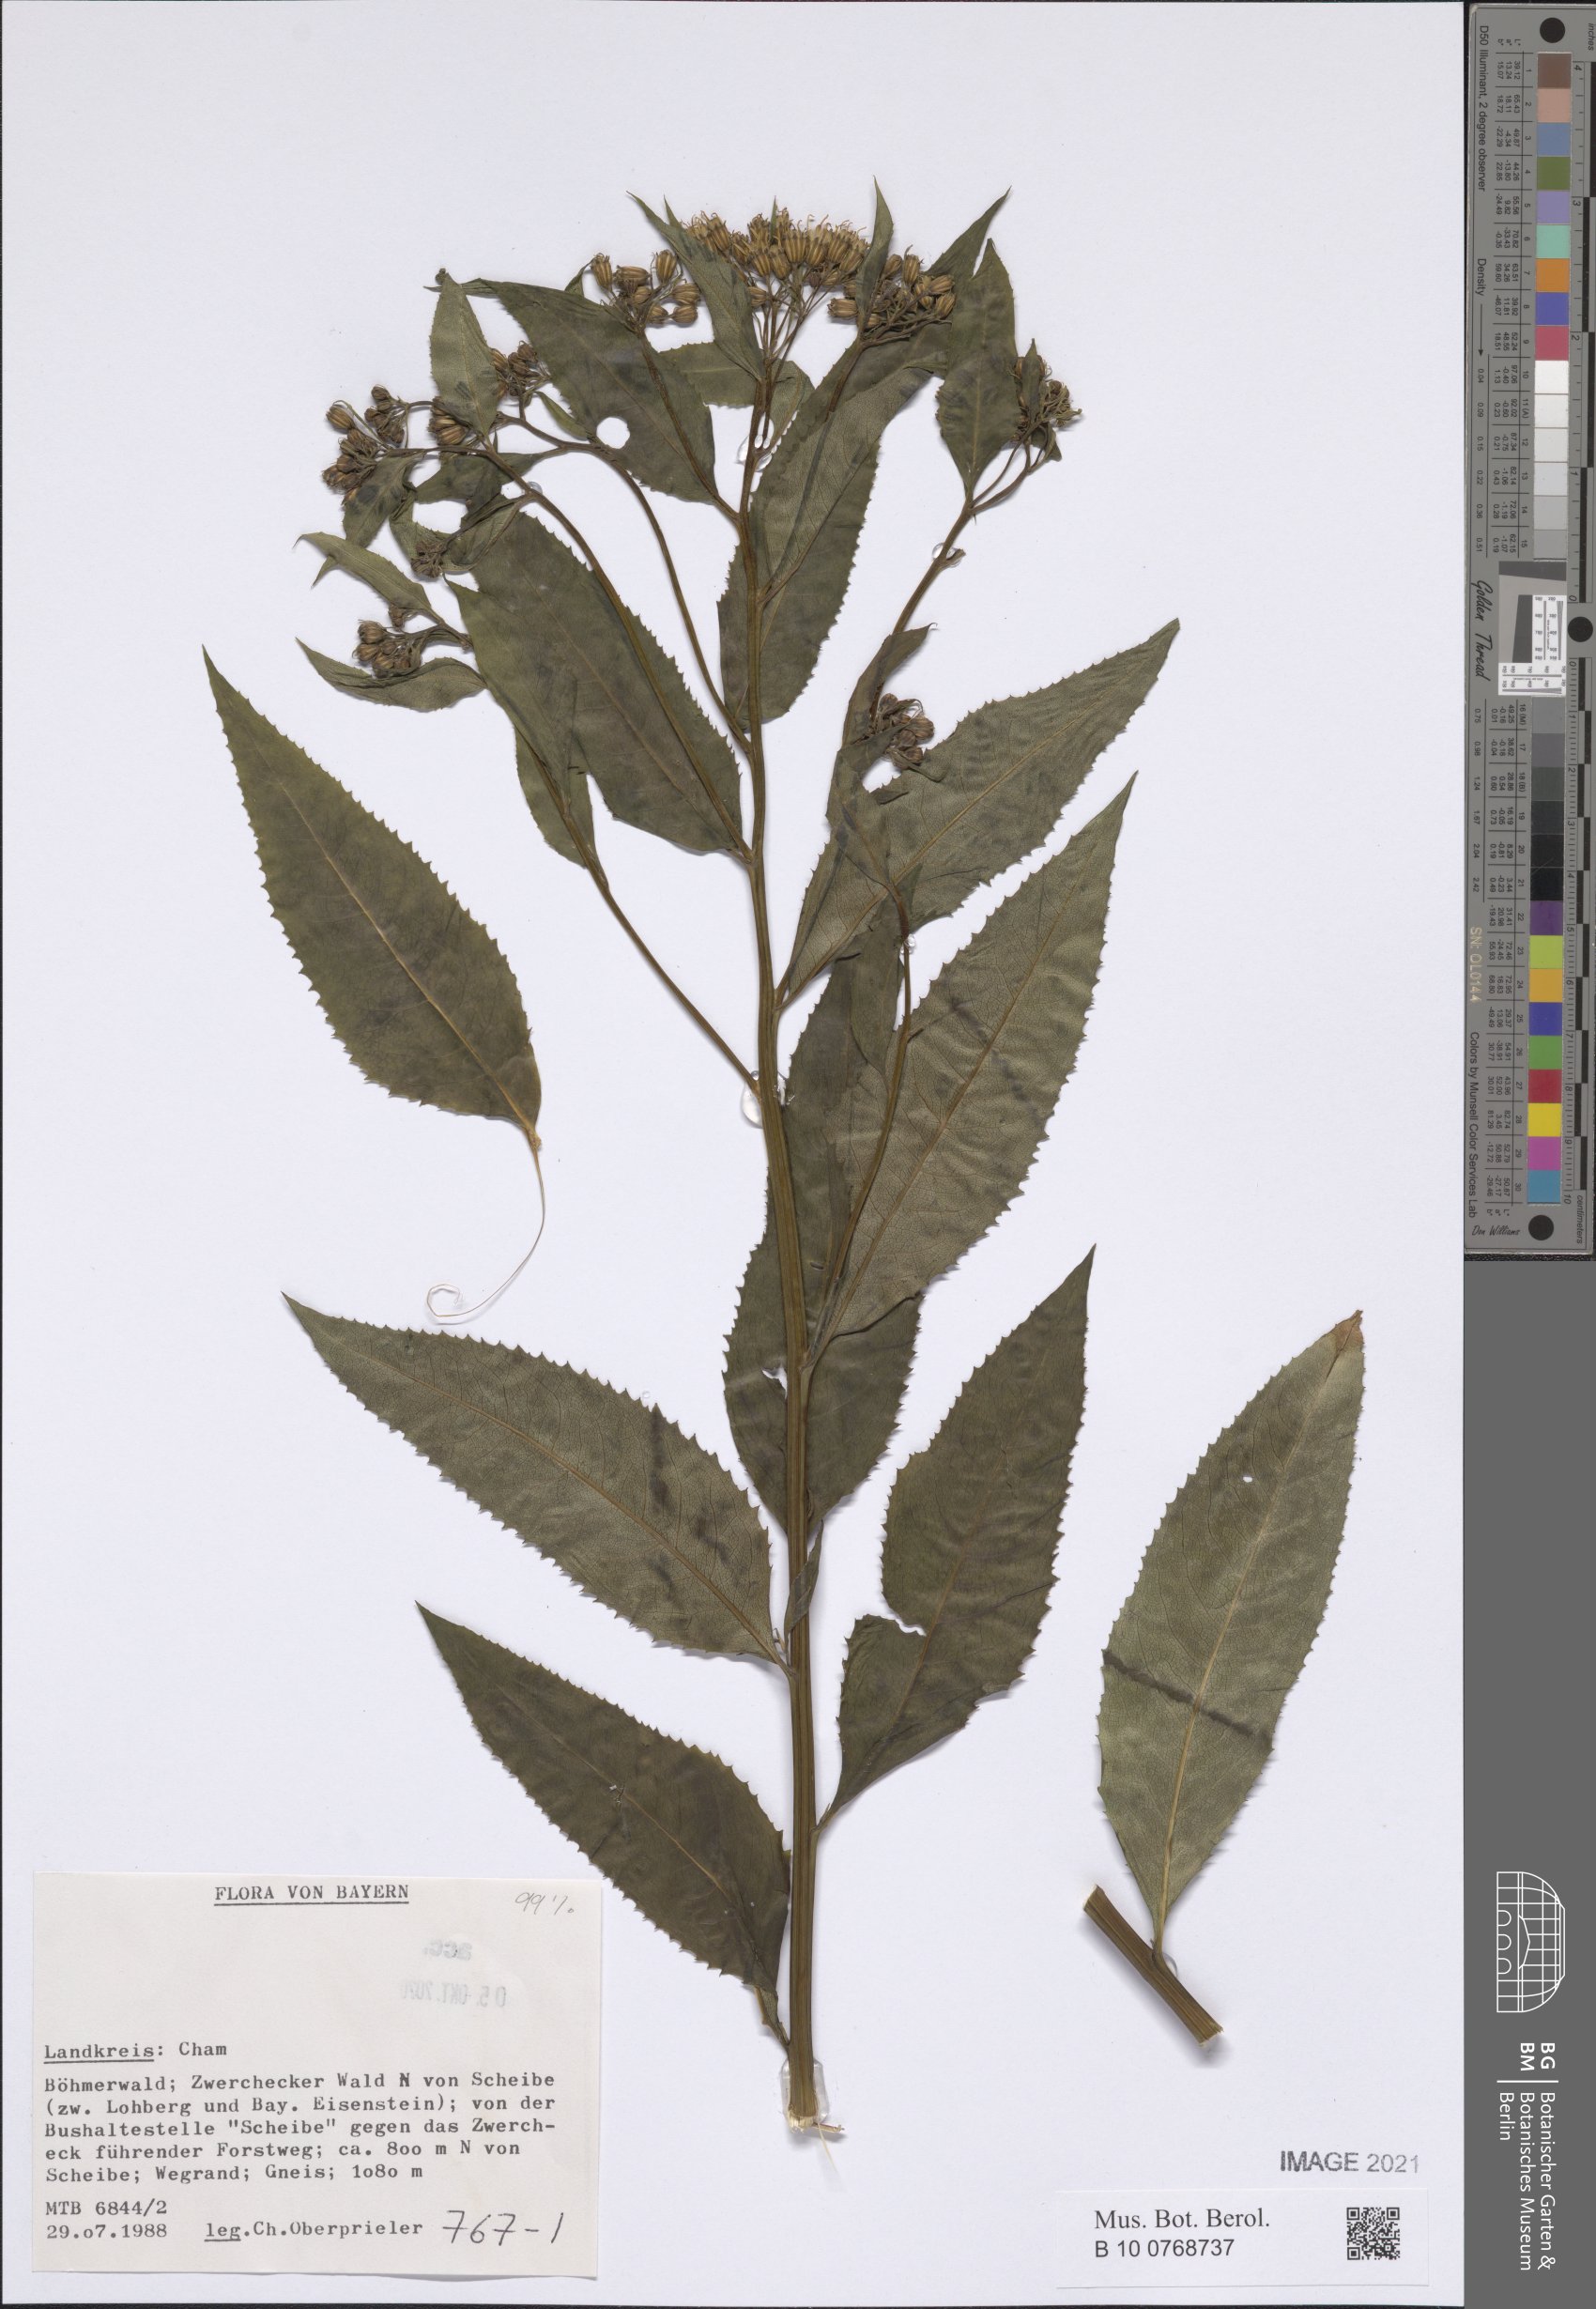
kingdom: Plantae
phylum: Tracheophyta
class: Magnoliopsida
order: Asterales
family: Asteraceae
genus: Senecio
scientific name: Senecio
